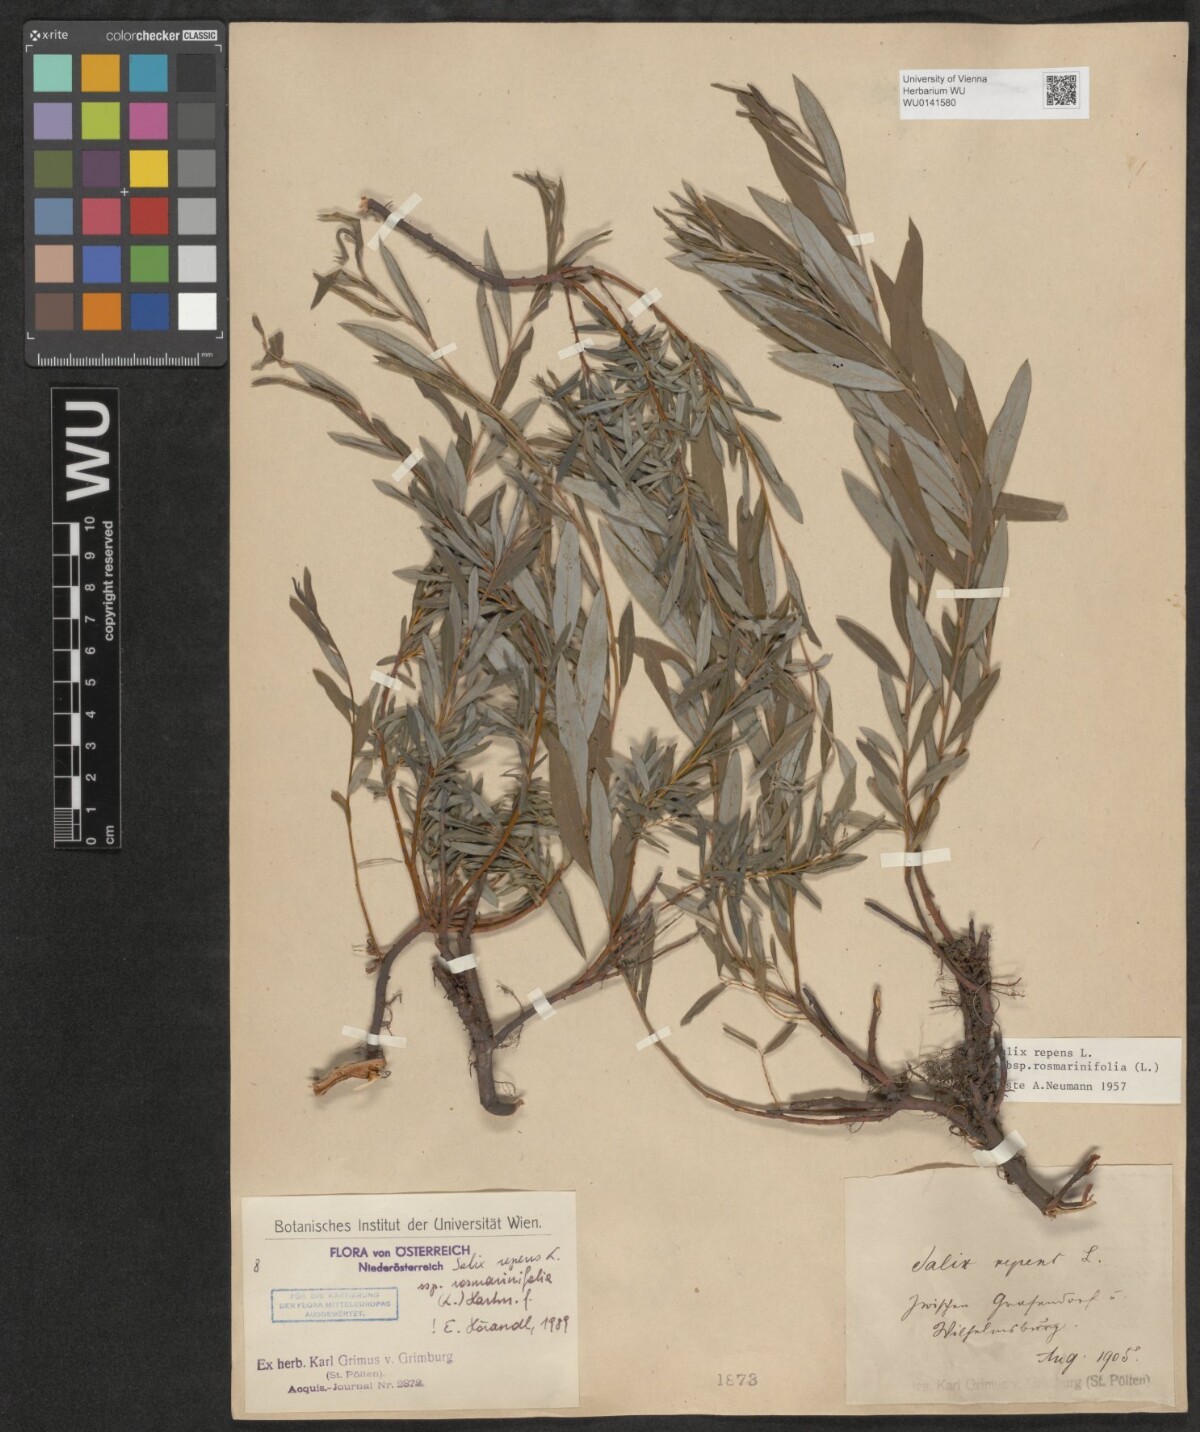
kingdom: Plantae
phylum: Tracheophyta
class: Magnoliopsida
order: Malpighiales
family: Salicaceae
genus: Salix
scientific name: Salix repens
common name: Creeping willow
